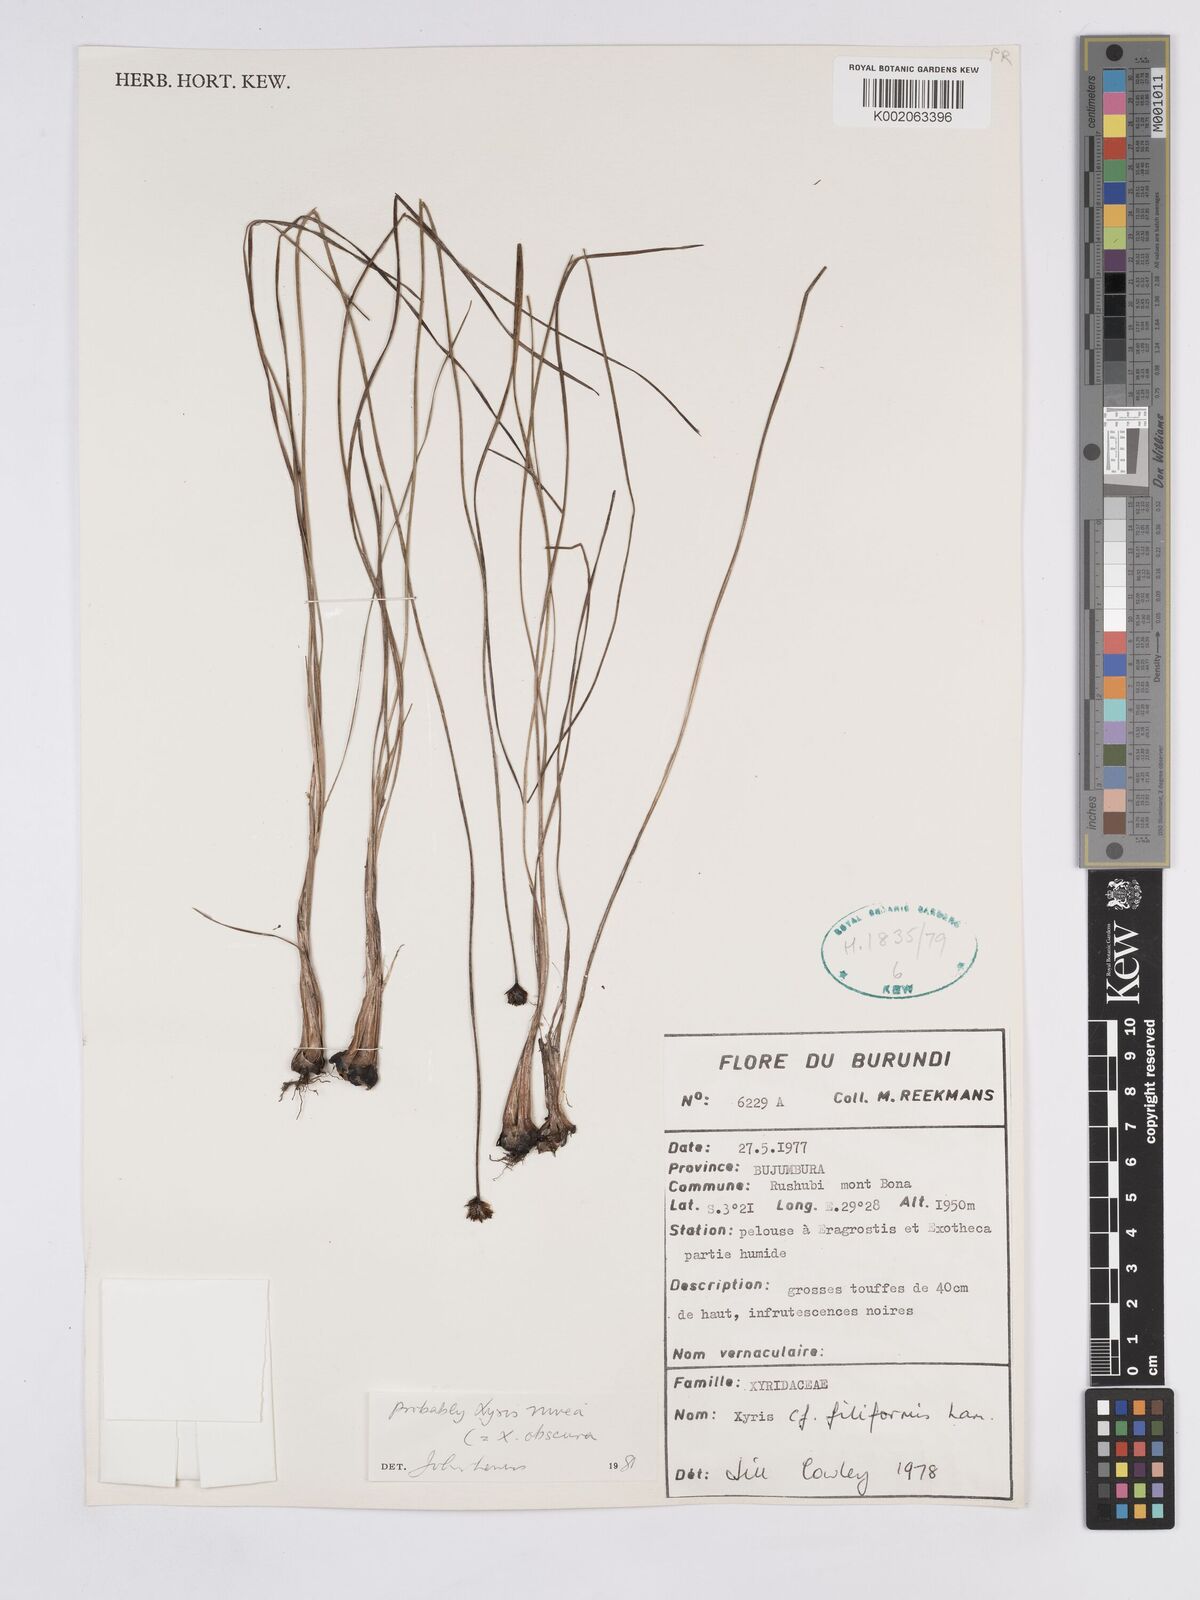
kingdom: Plantae
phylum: Tracheophyta
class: Liliopsida
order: Poales
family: Xyridaceae
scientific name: Xyridaceae
